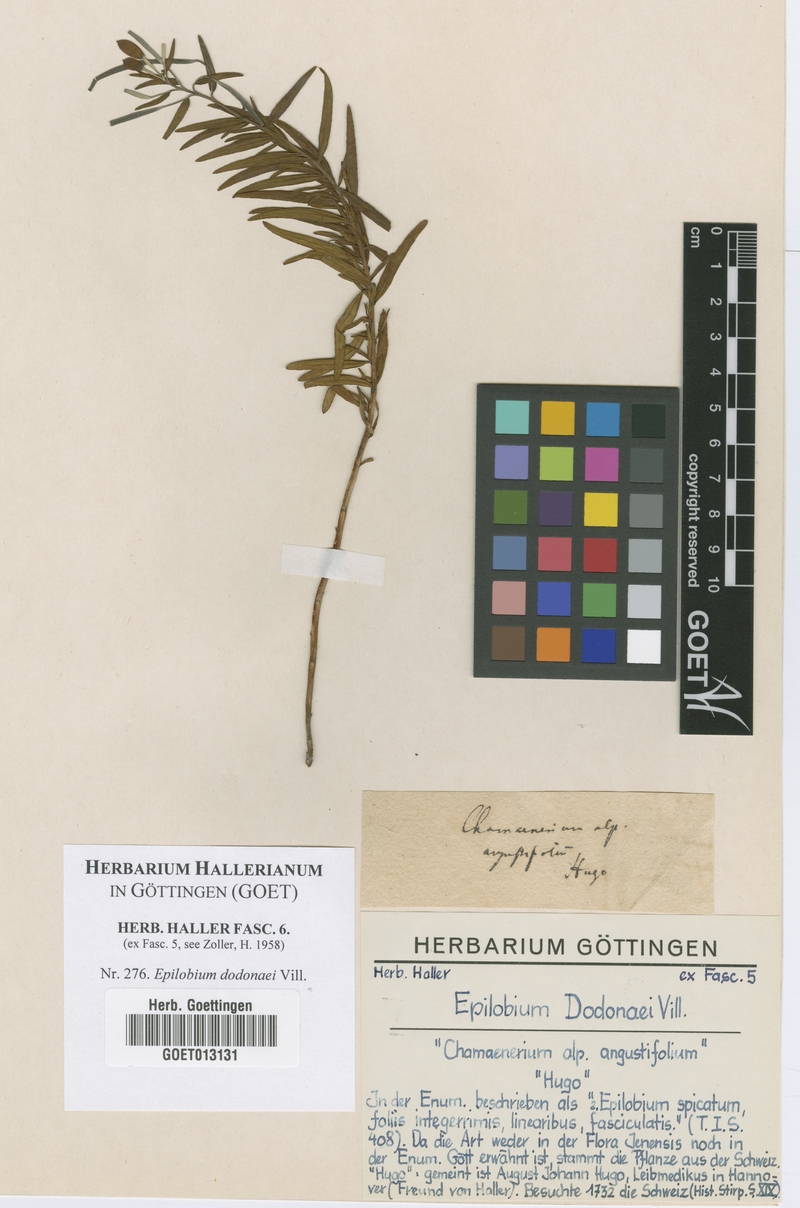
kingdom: Plantae
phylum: Tracheophyta
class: Magnoliopsida
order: Myrtales
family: Onagraceae
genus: Chamaenerion
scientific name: Chamaenerion dodonaei
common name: Rosemary-leaved willowherb
